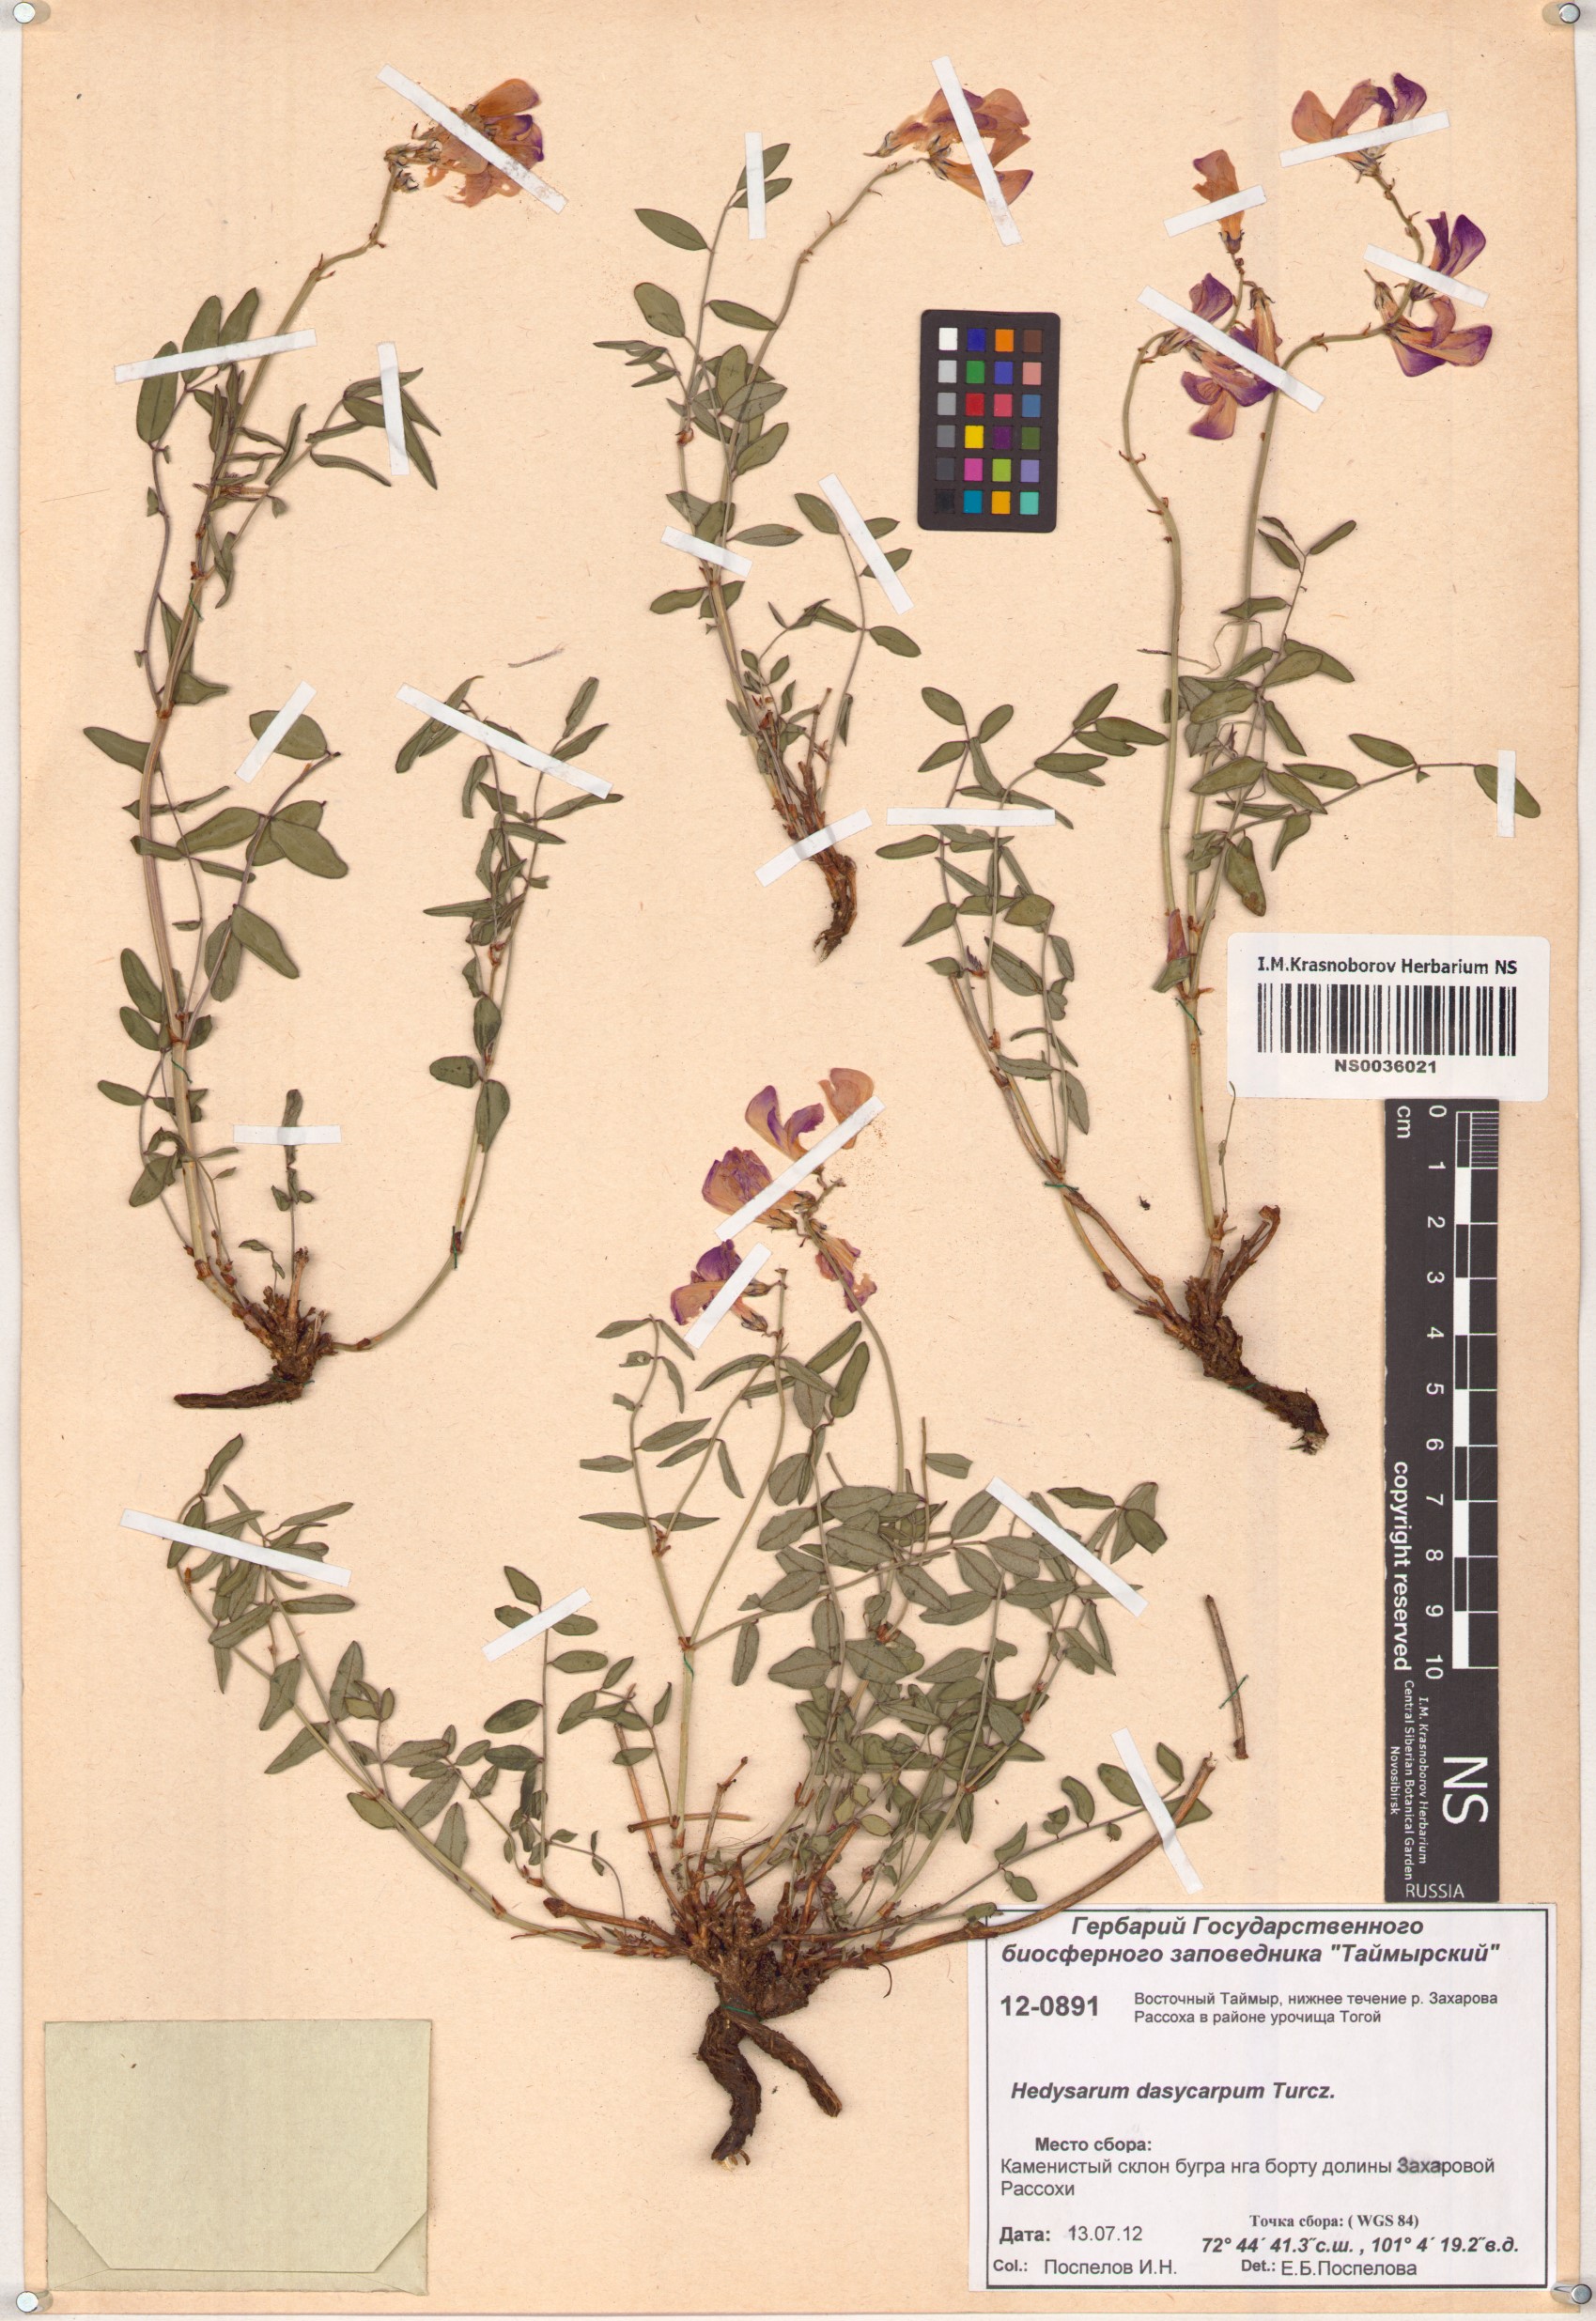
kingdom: Plantae
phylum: Tracheophyta
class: Magnoliopsida
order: Fabales
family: Fabaceae
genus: Hedysarum
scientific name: Hedysarum dasycarpum
